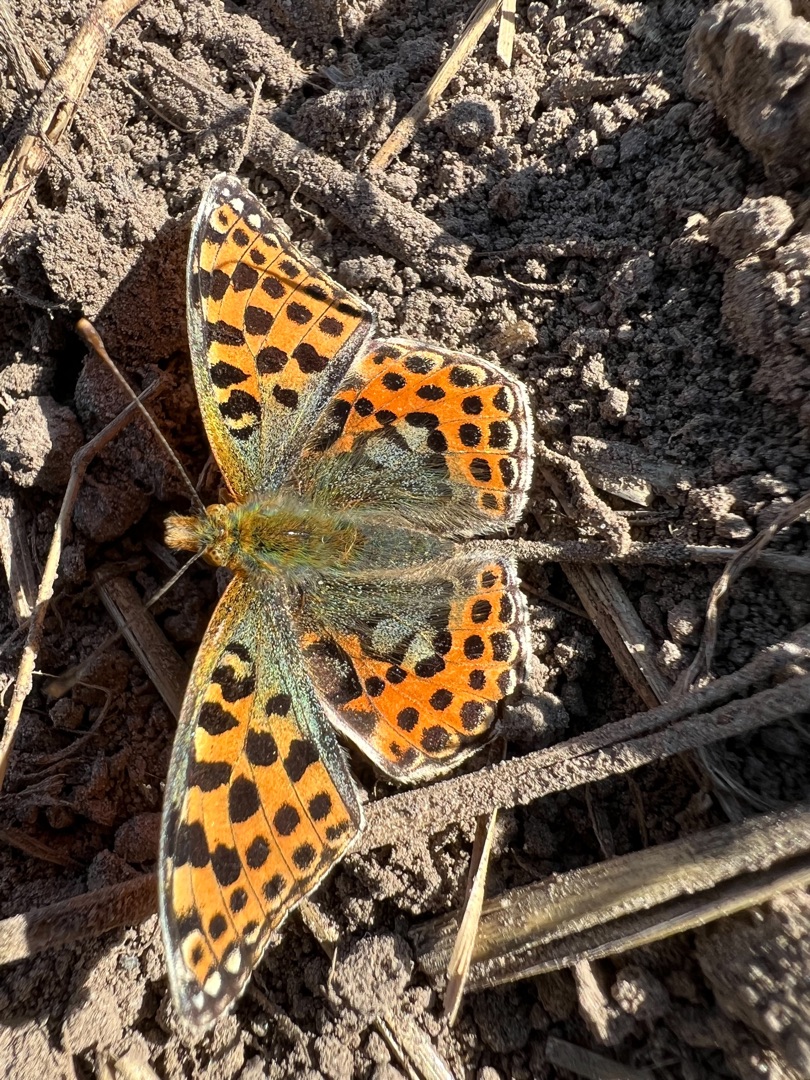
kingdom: Animalia
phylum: Arthropoda
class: Insecta
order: Lepidoptera
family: Nymphalidae
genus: Issoria
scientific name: Issoria lathonia
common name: Storplettet perlemorsommerfugl
